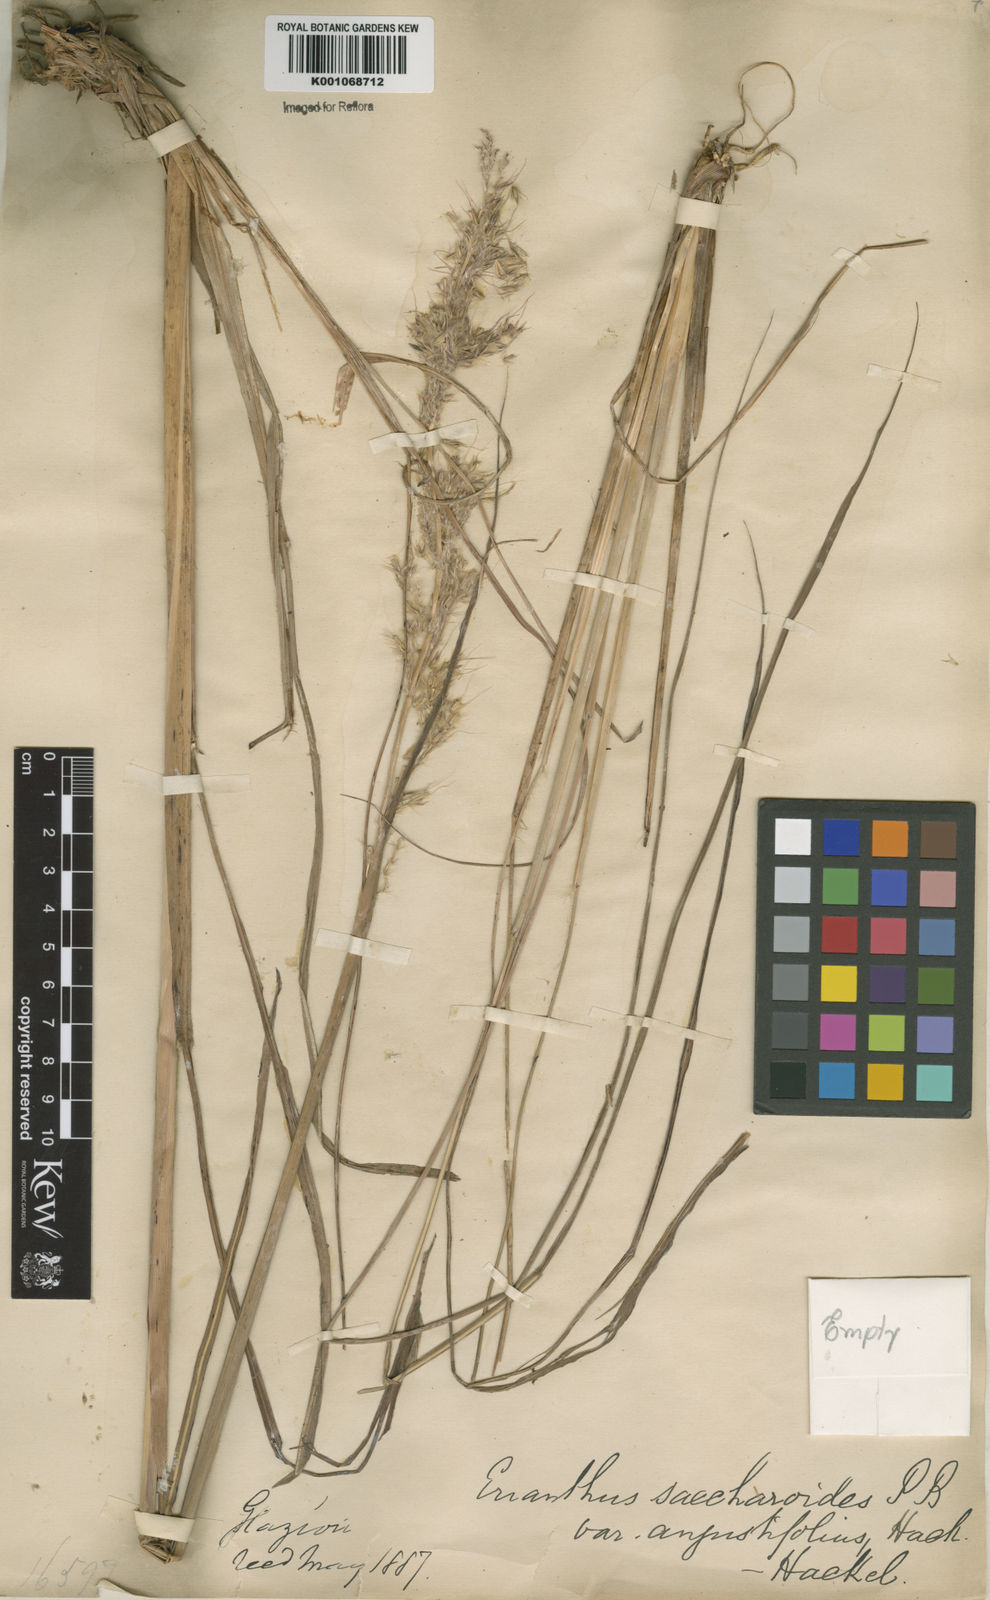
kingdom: Plantae
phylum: Tracheophyta
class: Liliopsida
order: Poales
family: Poaceae
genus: Saccharum
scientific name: Saccharum angustifolium
